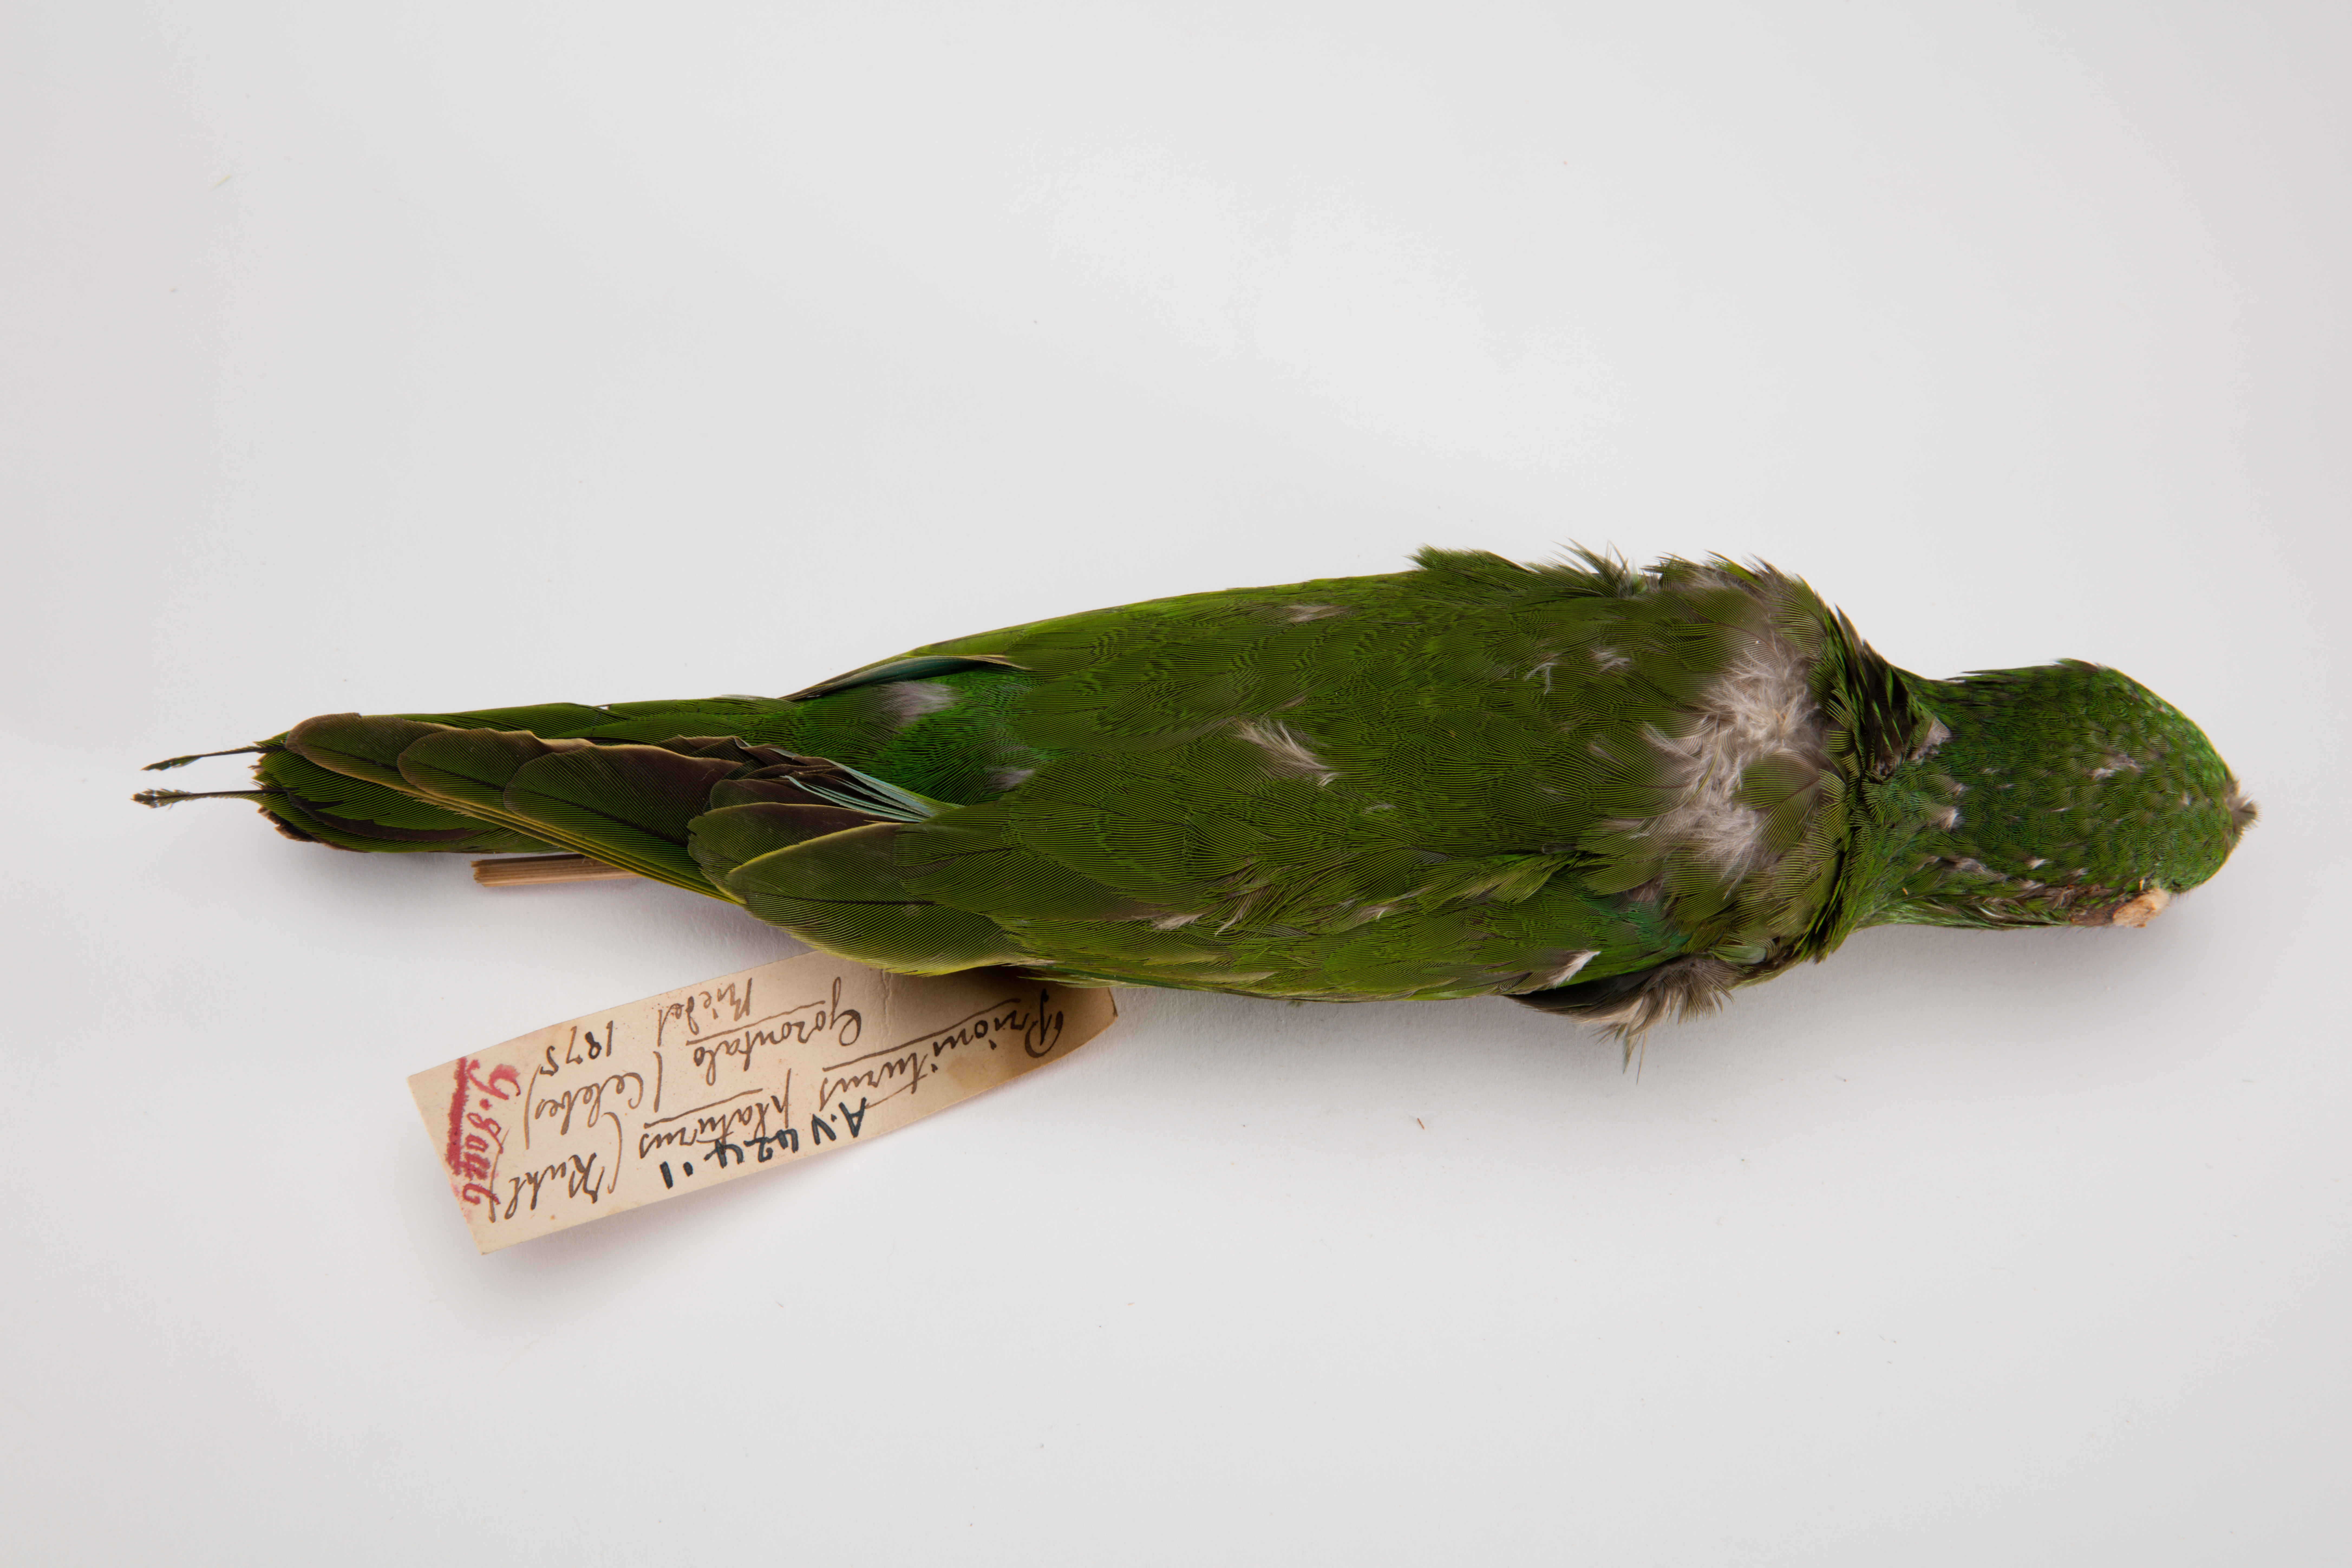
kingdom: Animalia
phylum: Chordata
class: Aves
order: Psittaciformes
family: Psittacidae
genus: Prioniturus
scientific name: Prioniturus platurus
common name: Golden-mantled racket-tail
